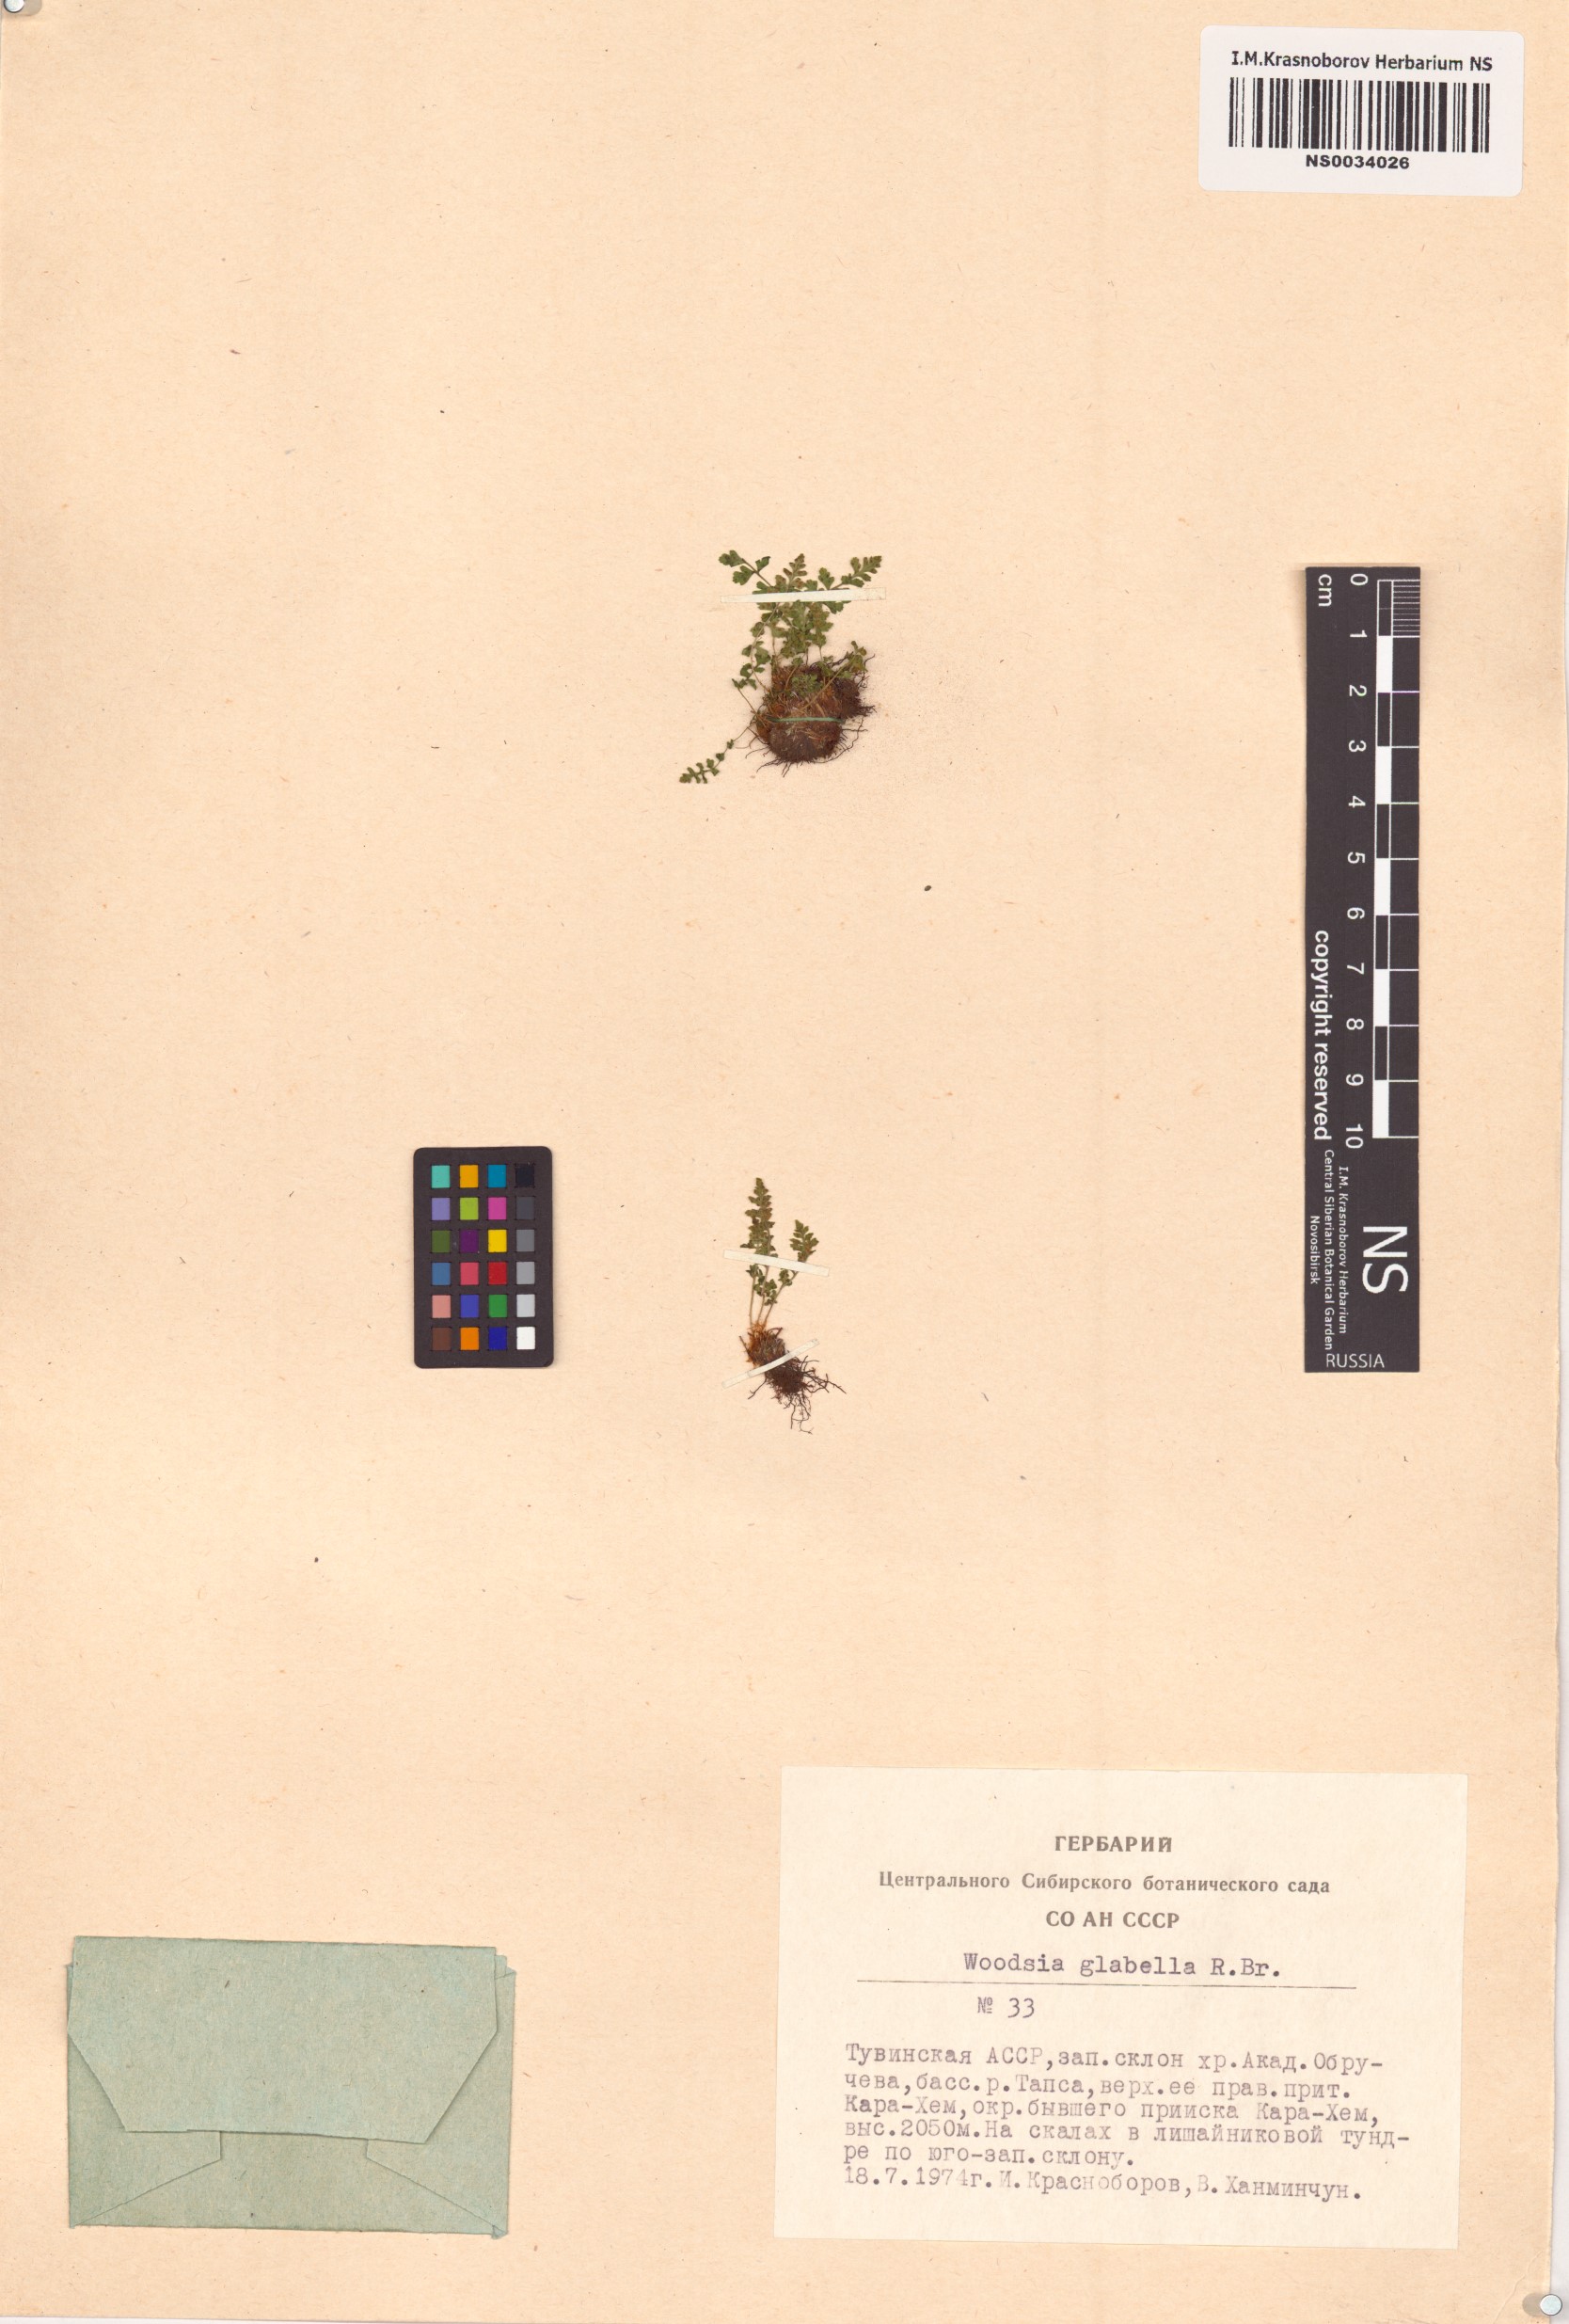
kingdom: Plantae
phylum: Tracheophyta
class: Polypodiopsida
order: Polypodiales
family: Woodsiaceae
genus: Woodsia
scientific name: Woodsia glabella
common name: Smooth woodsia
